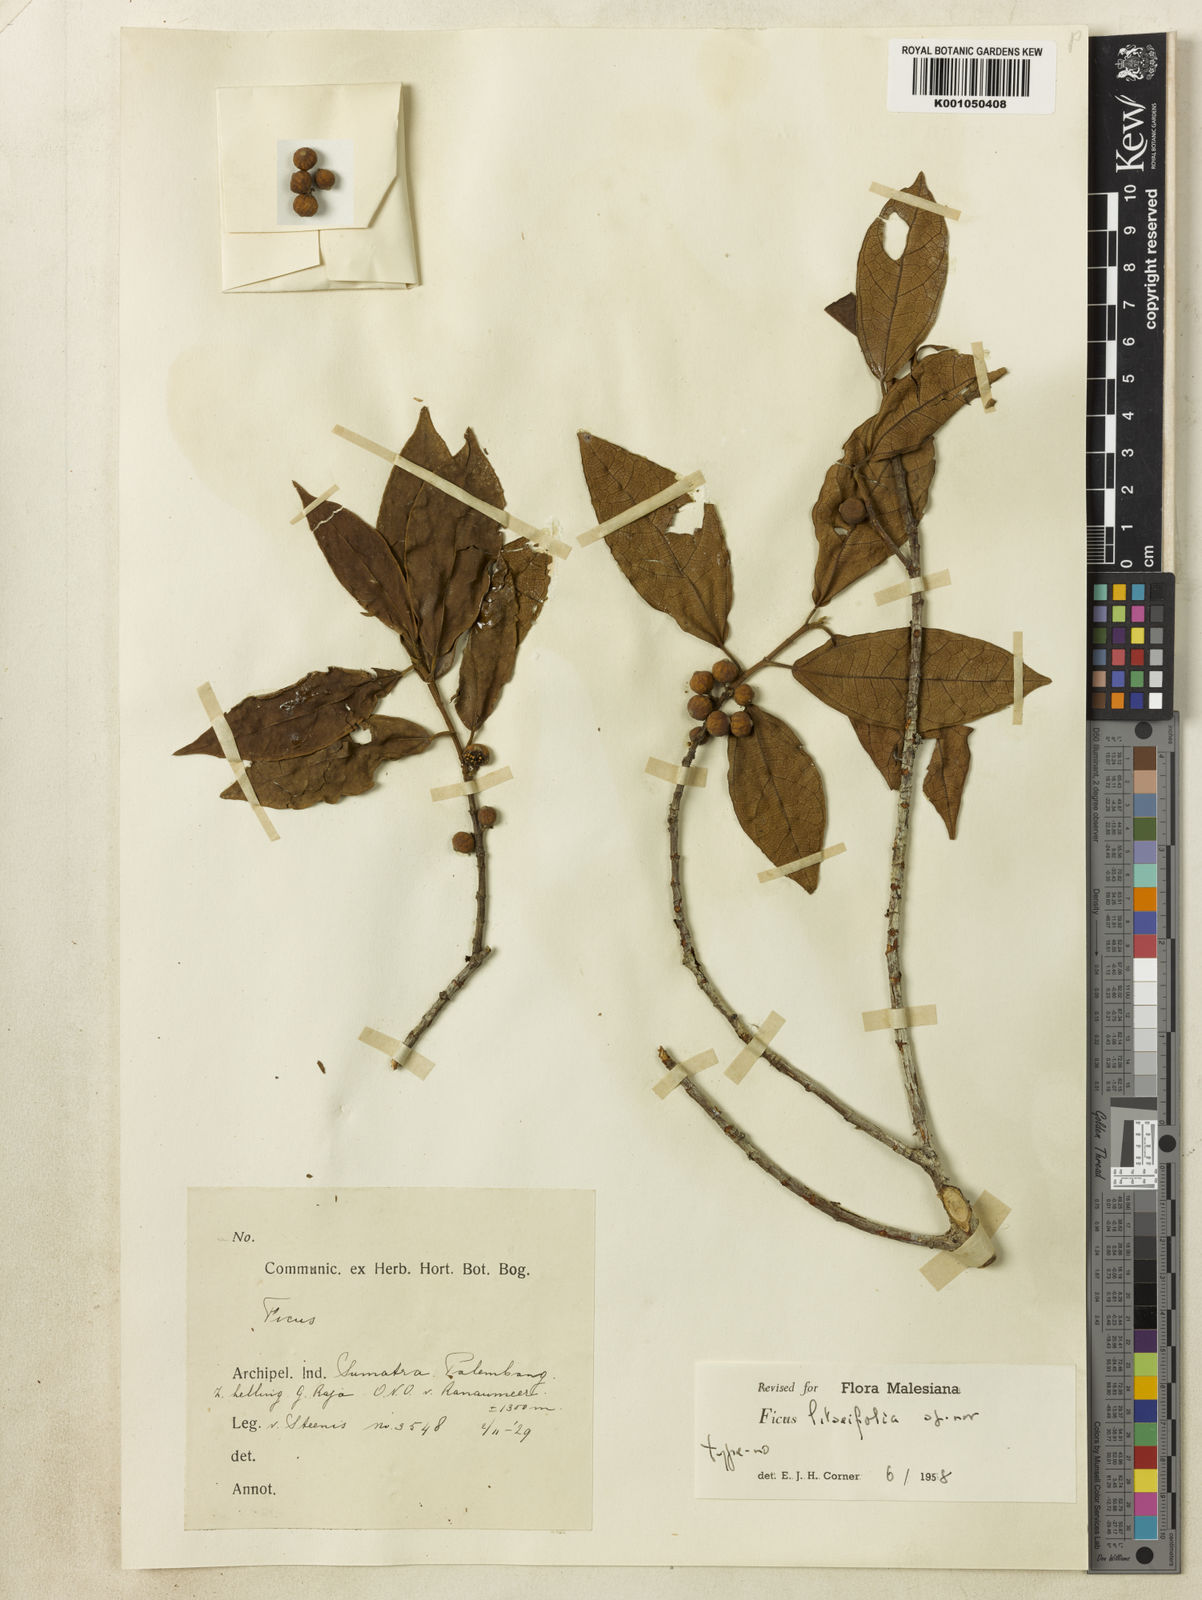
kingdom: Plantae
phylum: Tracheophyta
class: Magnoliopsida
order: Rosales
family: Moraceae
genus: Ficus
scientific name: Ficus litseifolia
